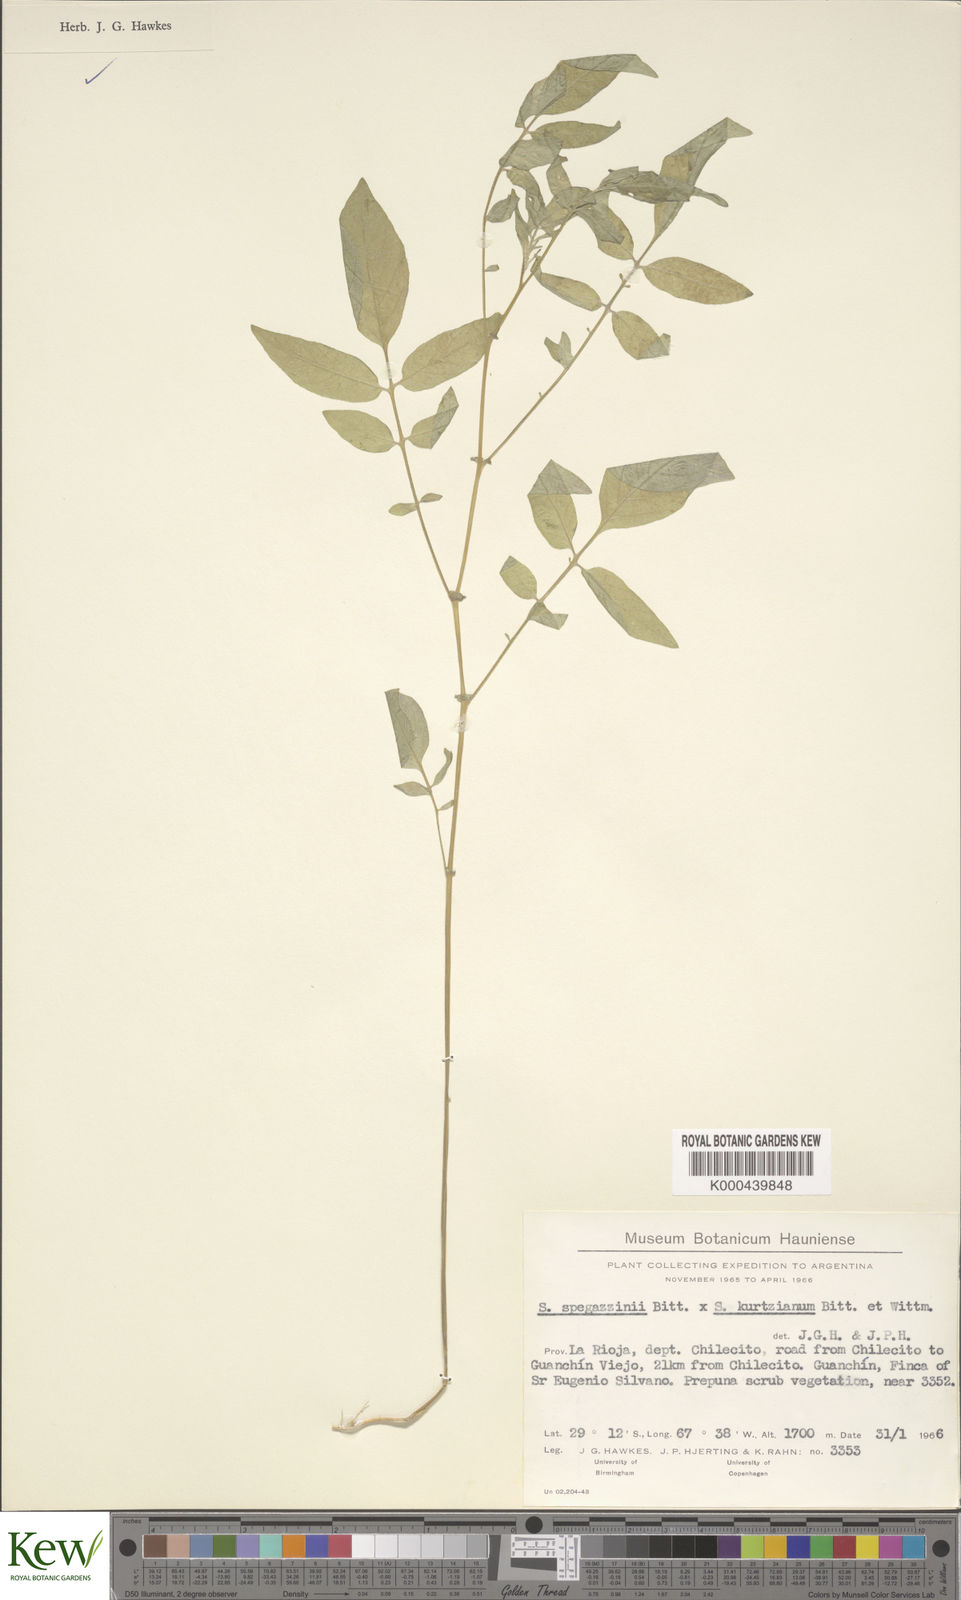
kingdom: Plantae
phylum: Tracheophyta
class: Magnoliopsida
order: Solanales
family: Solanaceae
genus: Solanum
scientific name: Solanum brevicaule
